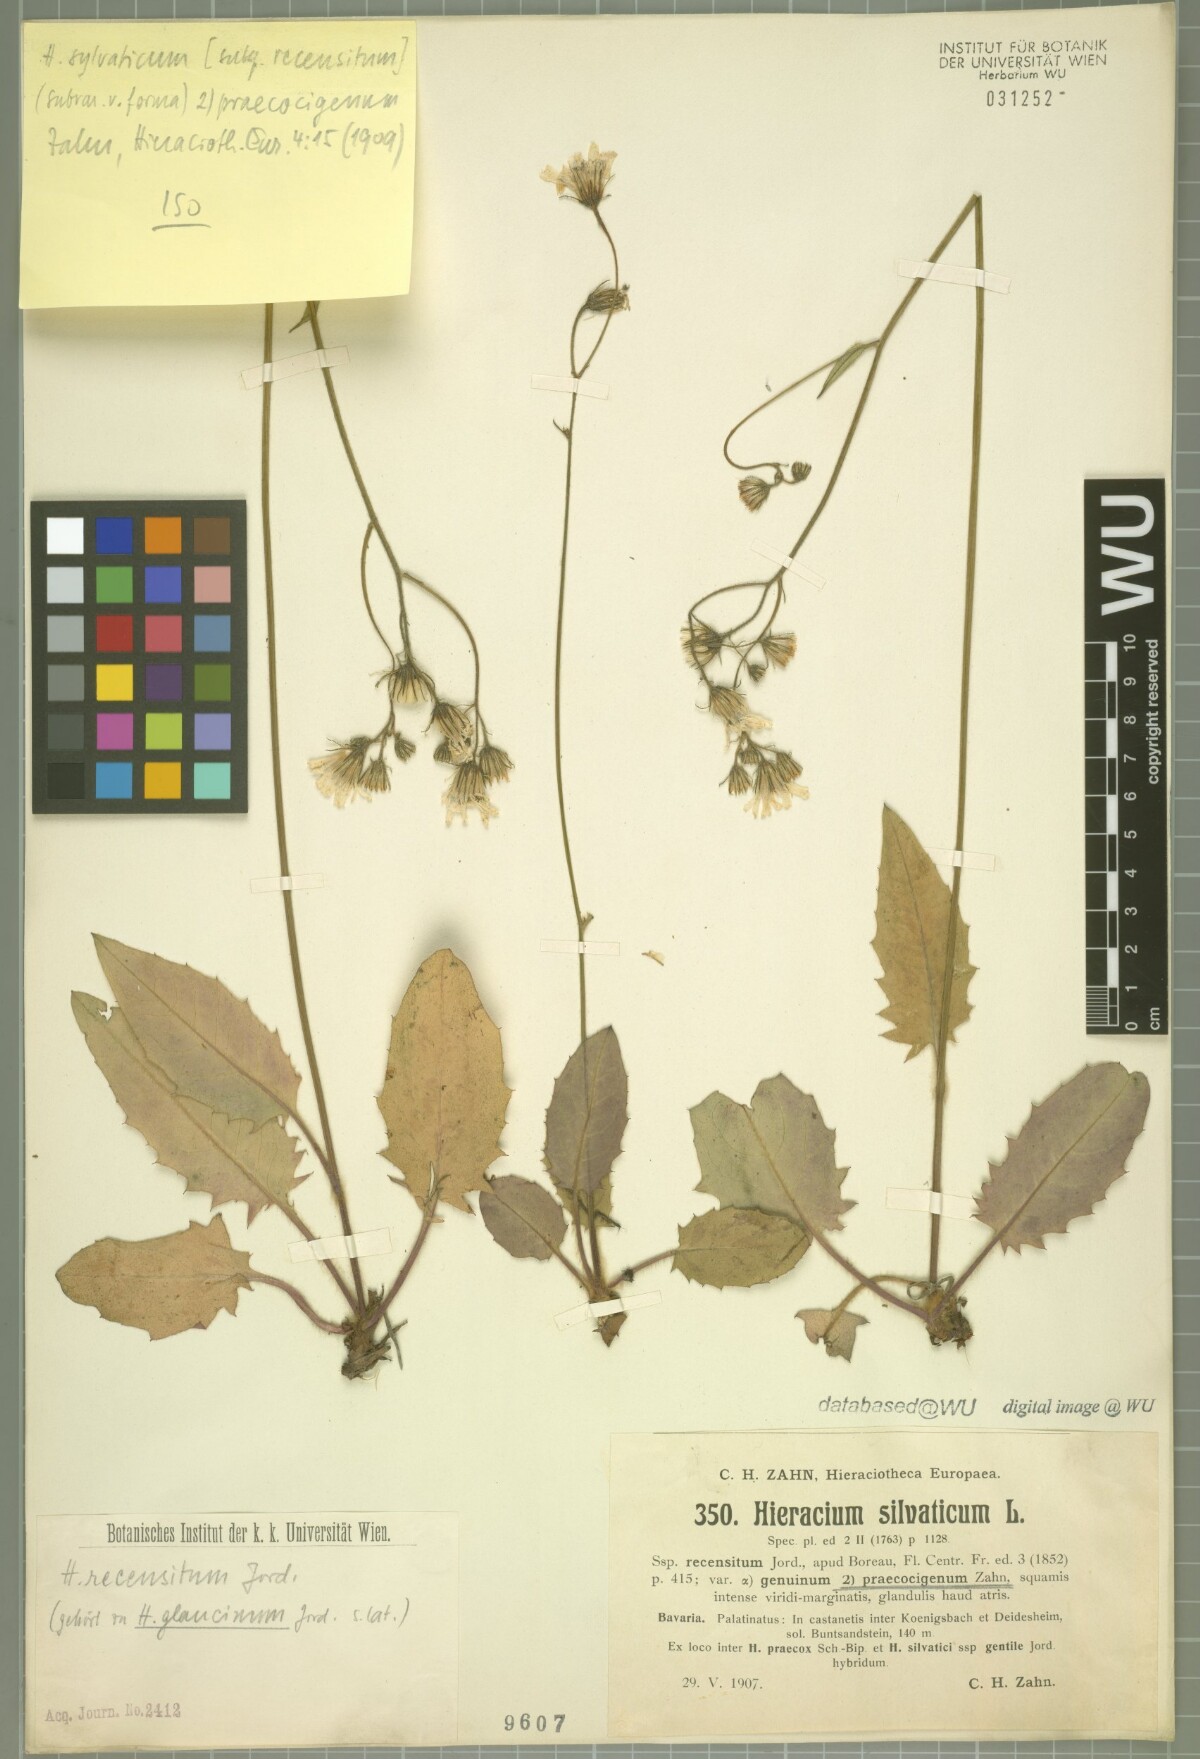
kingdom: Plantae
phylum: Tracheophyta
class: Magnoliopsida
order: Asterales
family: Asteraceae
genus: Hieracium
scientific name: Hieracium sylvaticum
